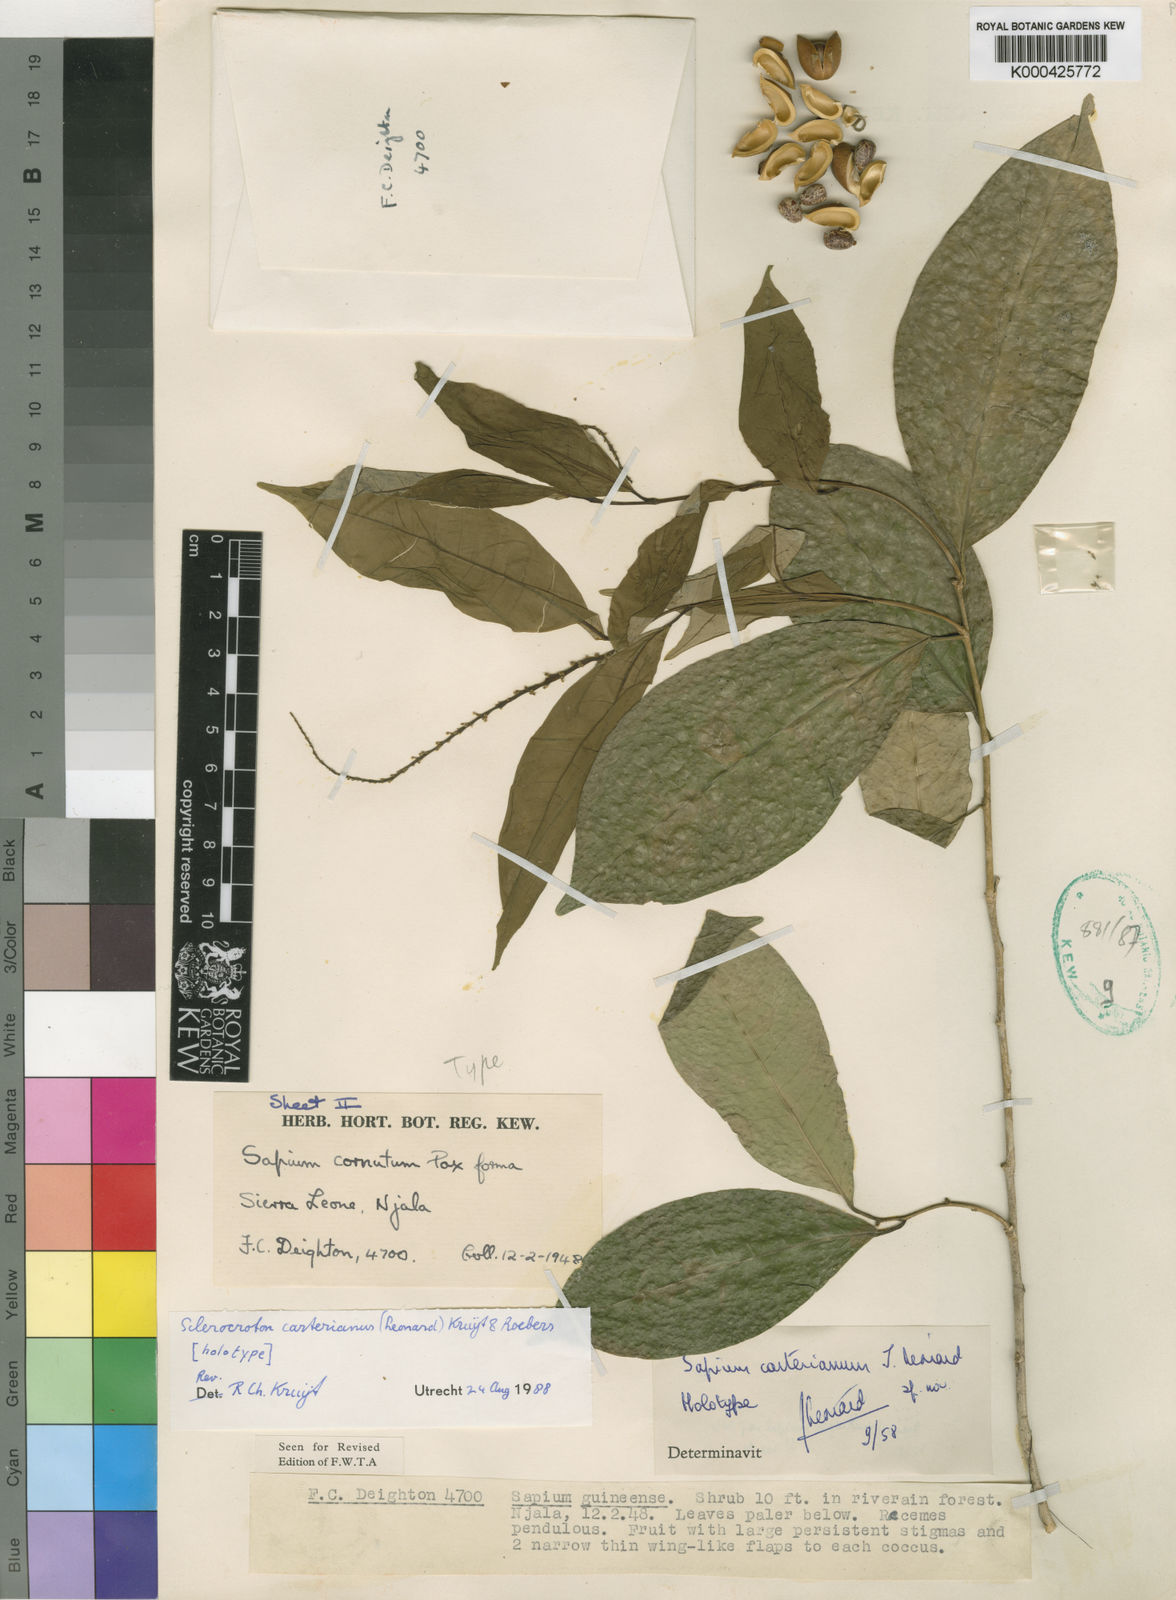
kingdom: Plantae
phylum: Tracheophyta
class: Magnoliopsida
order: Malpighiales
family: Euphorbiaceae
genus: Sapium
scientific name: Sapium
